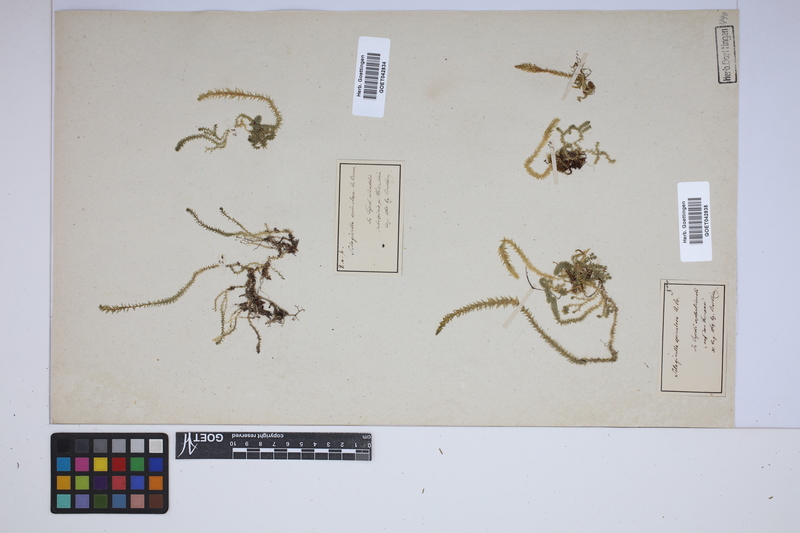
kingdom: Plantae
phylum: Tracheophyta
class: Lycopodiopsida
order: Selaginellales
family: Selaginellaceae
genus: Selaginella
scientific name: Selaginella selaginoides
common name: Prickly mountain-moss
